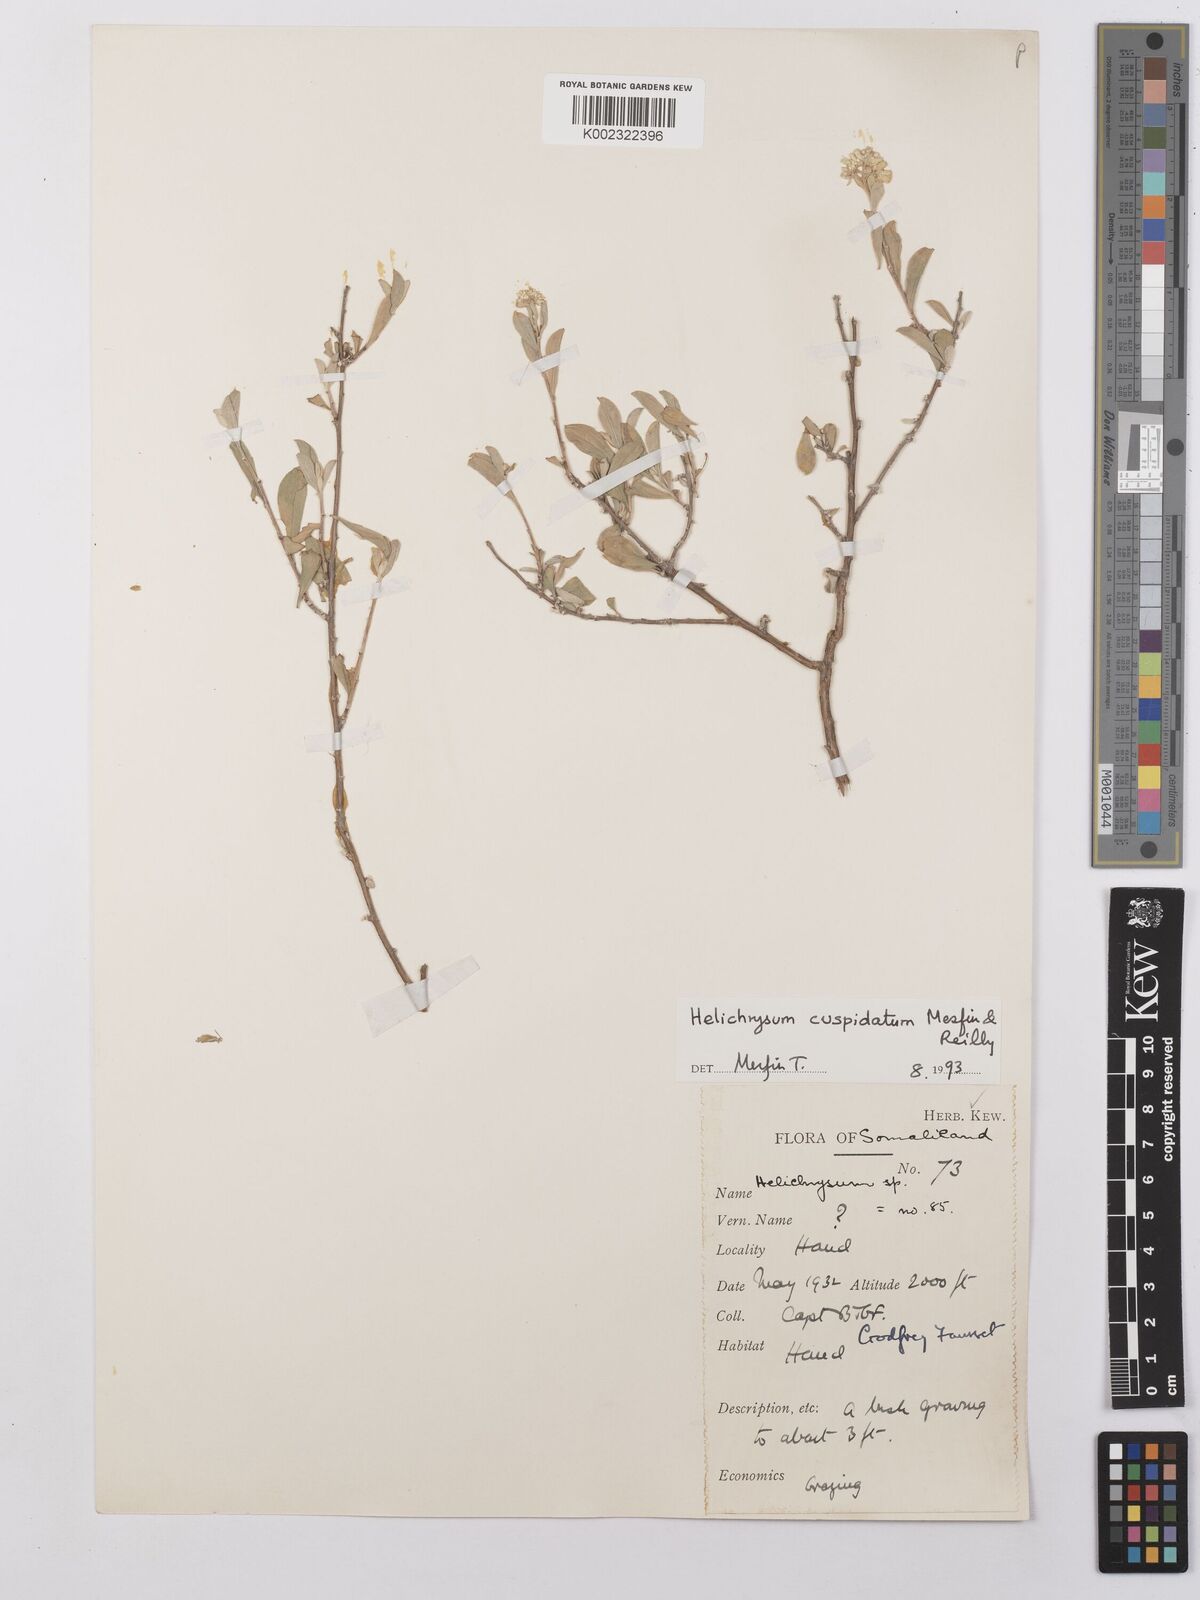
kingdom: Plantae
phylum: Tracheophyta
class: Magnoliopsida
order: Asterales
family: Asteraceae
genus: Helichrysum
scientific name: Helichrysum cuspidatum
